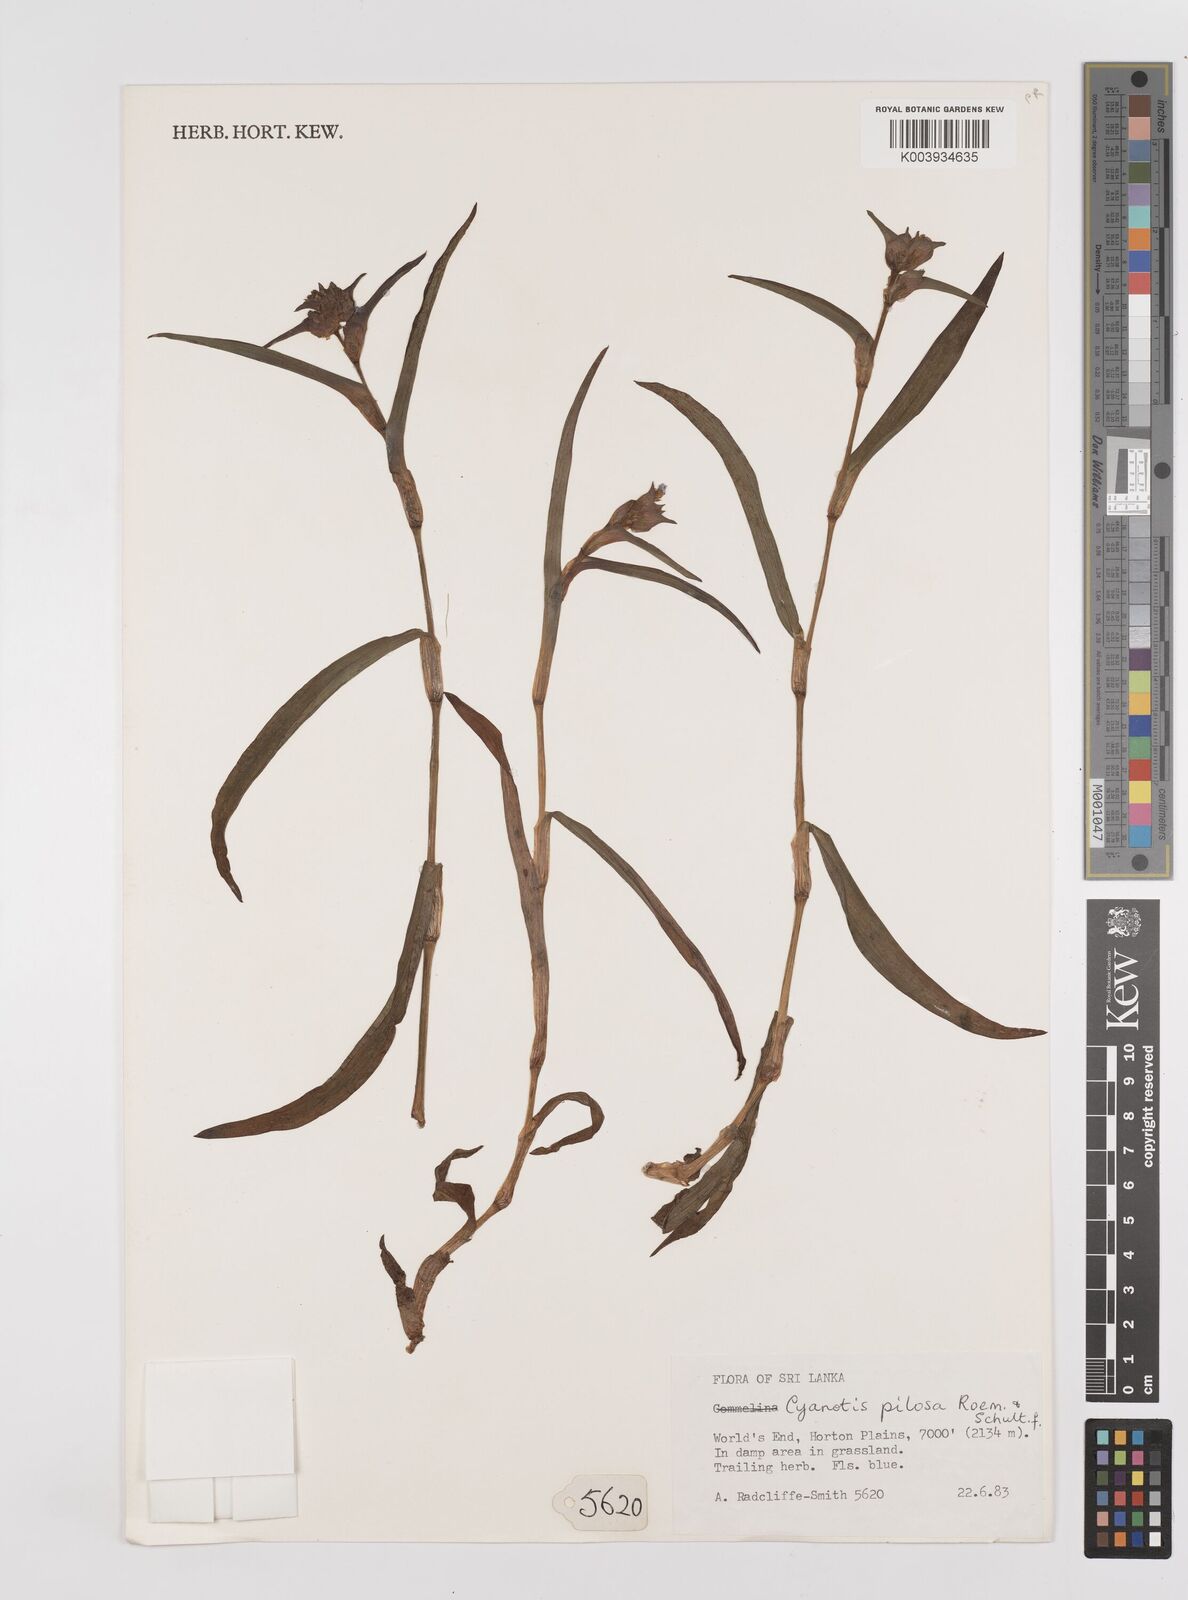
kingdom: Plantae
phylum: Tracheophyta
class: Liliopsida
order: Commelinales
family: Commelinaceae
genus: Cyanotis
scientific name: Cyanotis pilosa
